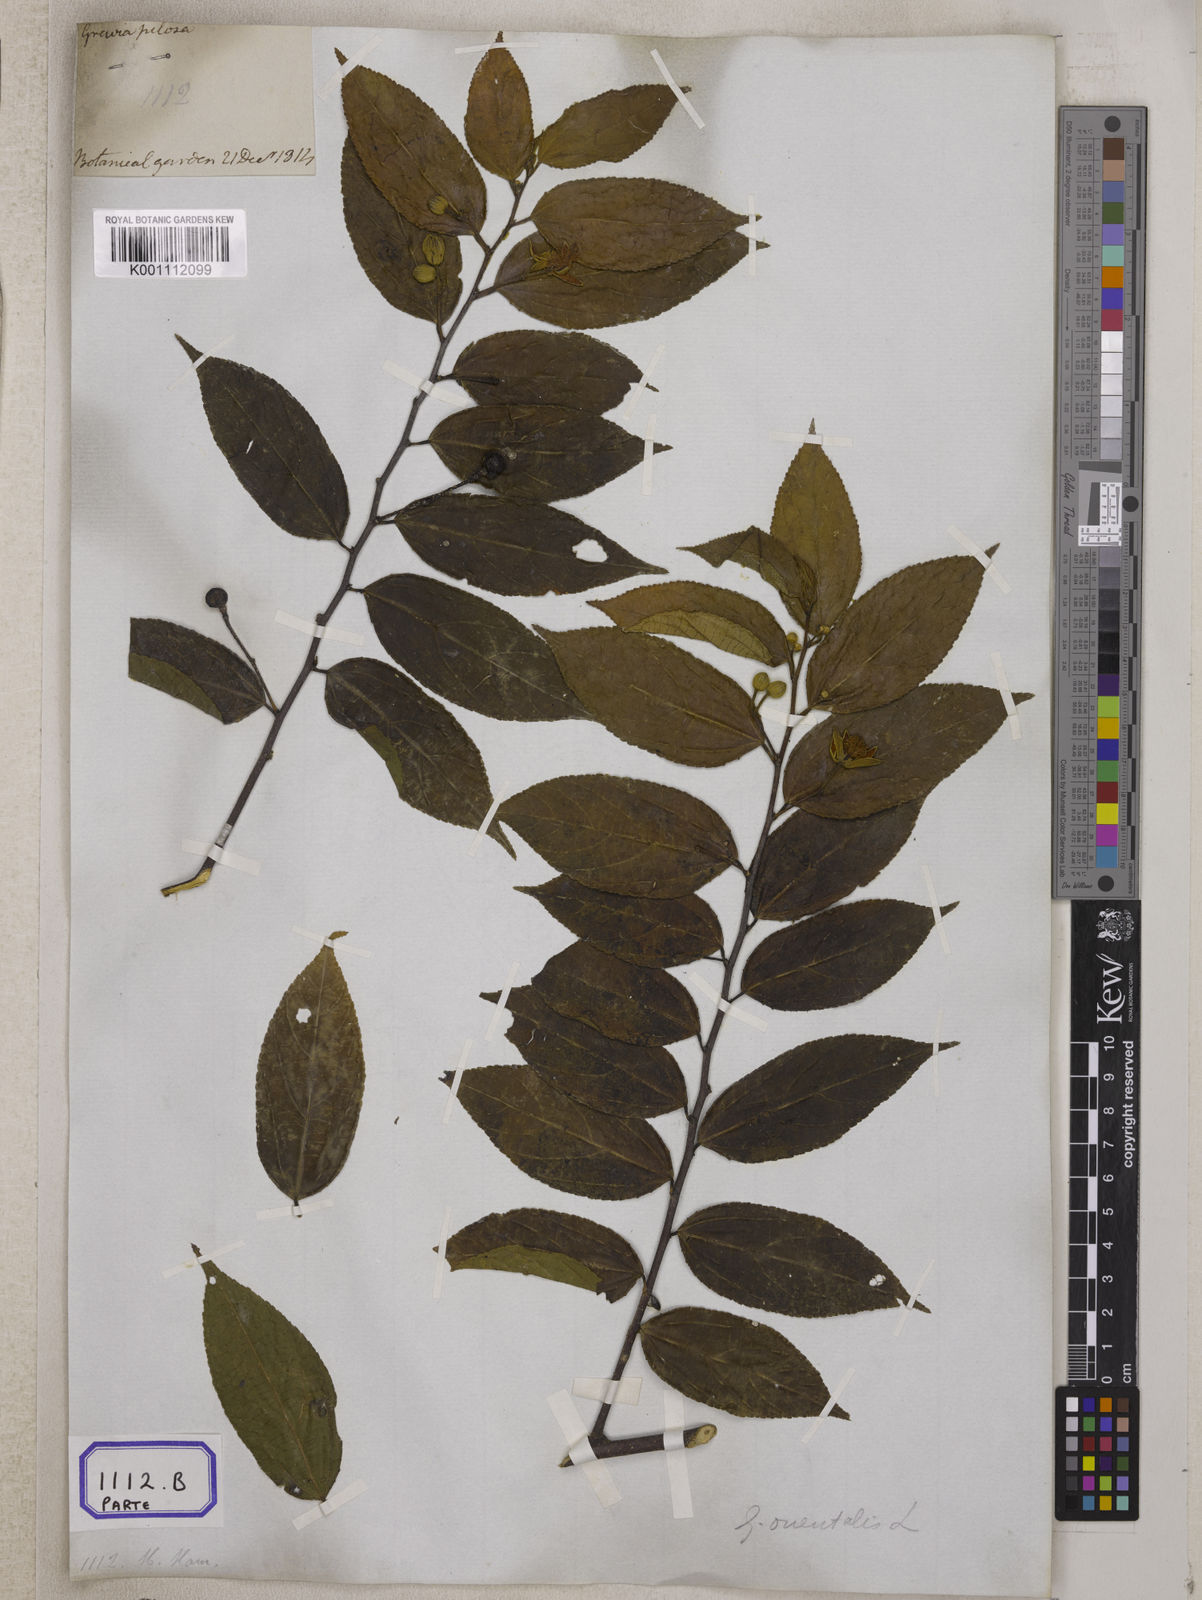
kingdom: Plantae
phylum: Tracheophyta
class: Magnoliopsida
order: Malvales
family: Malvaceae
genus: Grewia
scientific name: Grewia hirsuta
